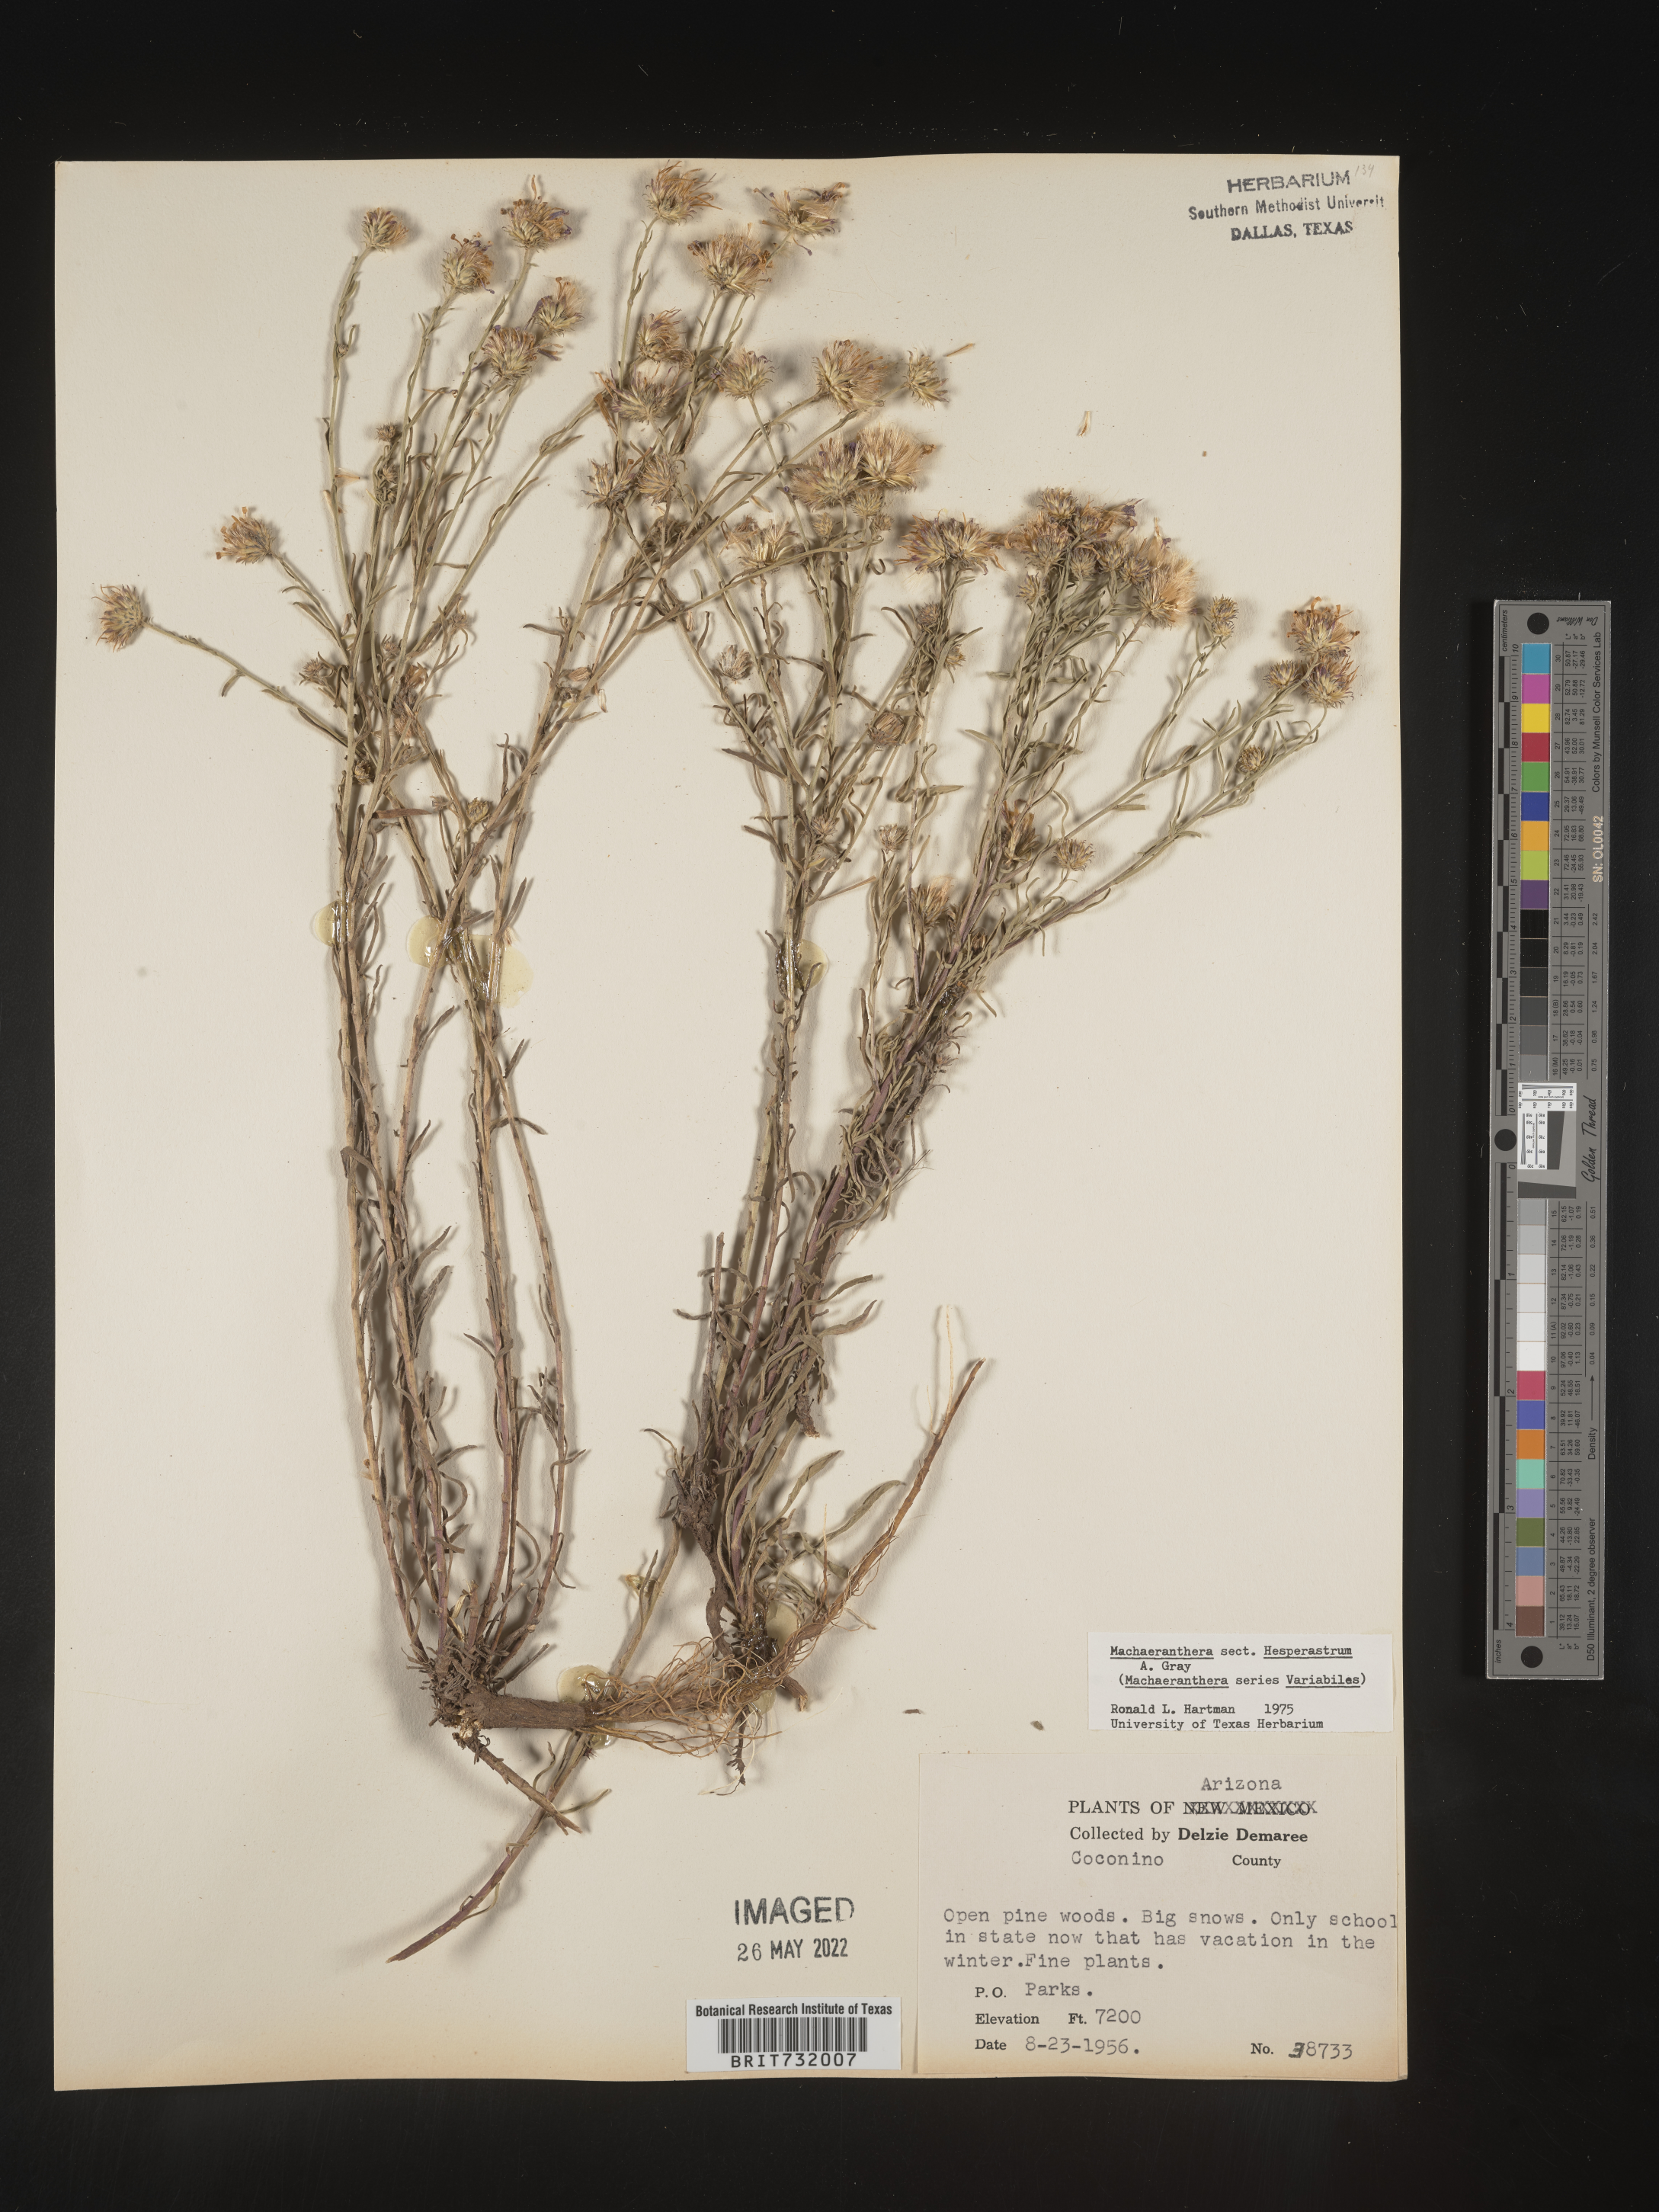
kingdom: Plantae
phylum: Tracheophyta
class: Magnoliopsida
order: Asterales
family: Asteraceae
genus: Machaeranthera
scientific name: Machaeranthera
